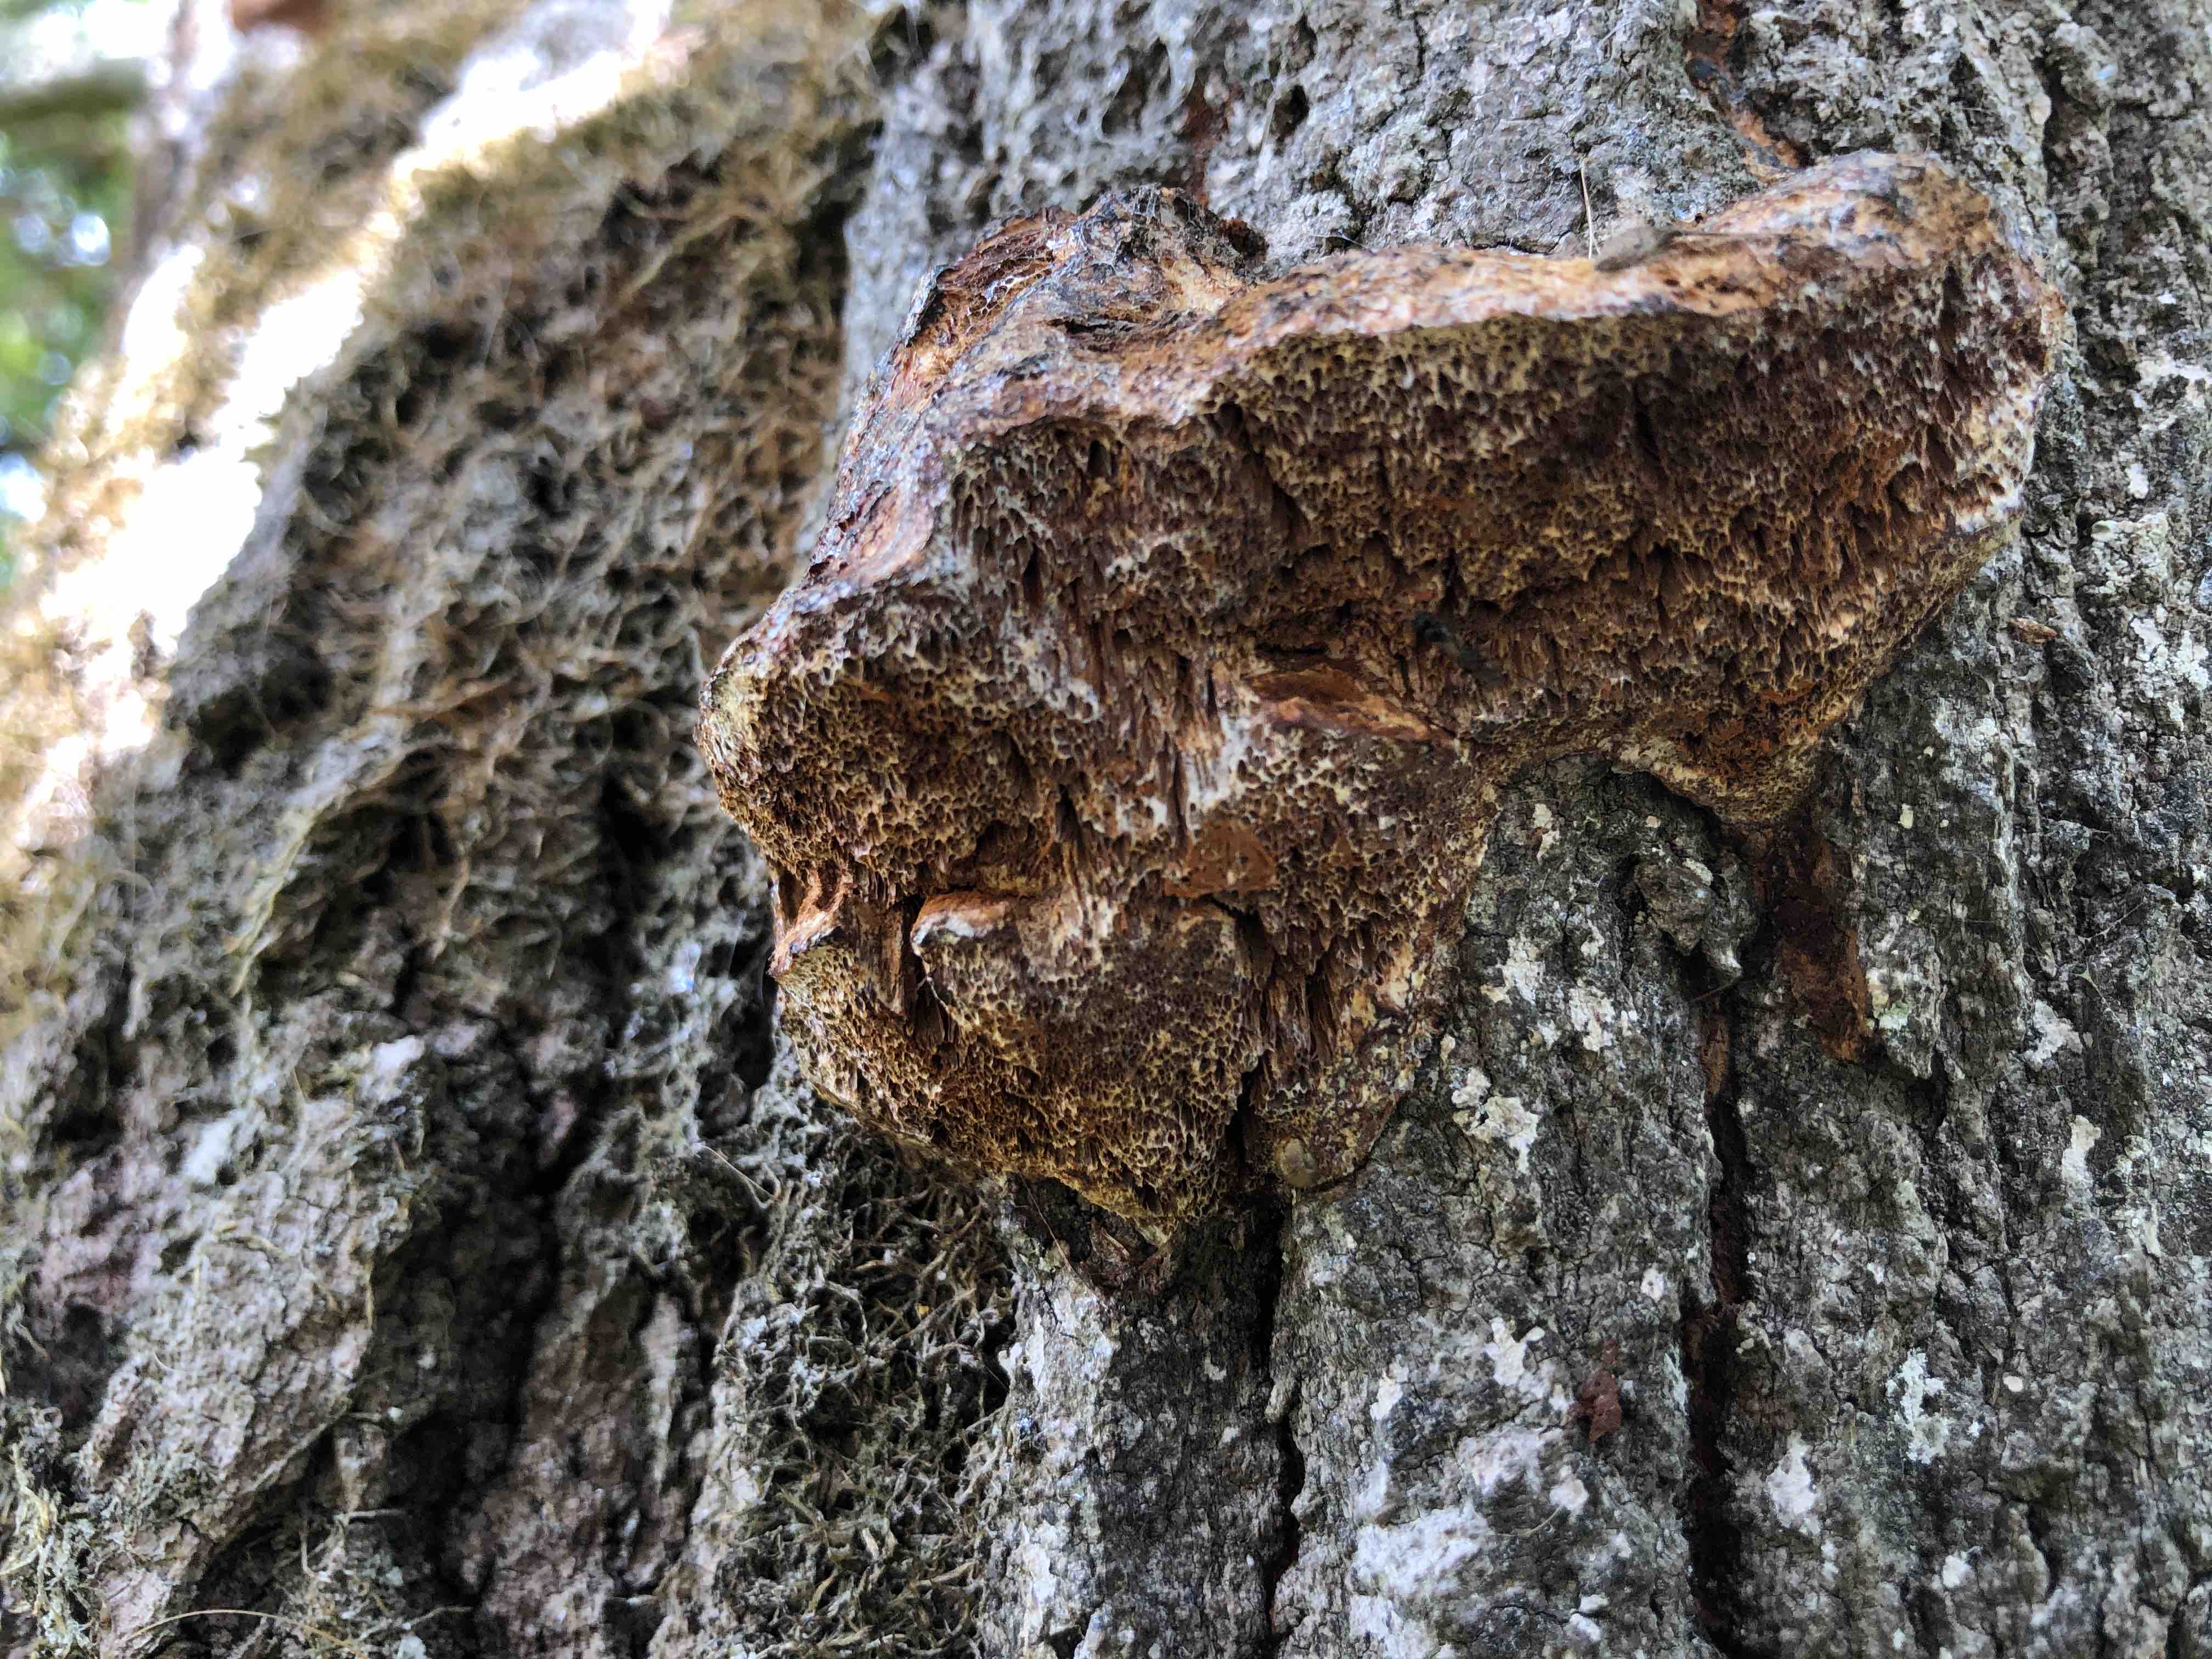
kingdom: Fungi
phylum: Basidiomycota
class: Agaricomycetes
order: Hymenochaetales
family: Hymenochaetaceae
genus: Inocutis
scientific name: Inocutis rheades
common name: ræve-spejlporesvamp
